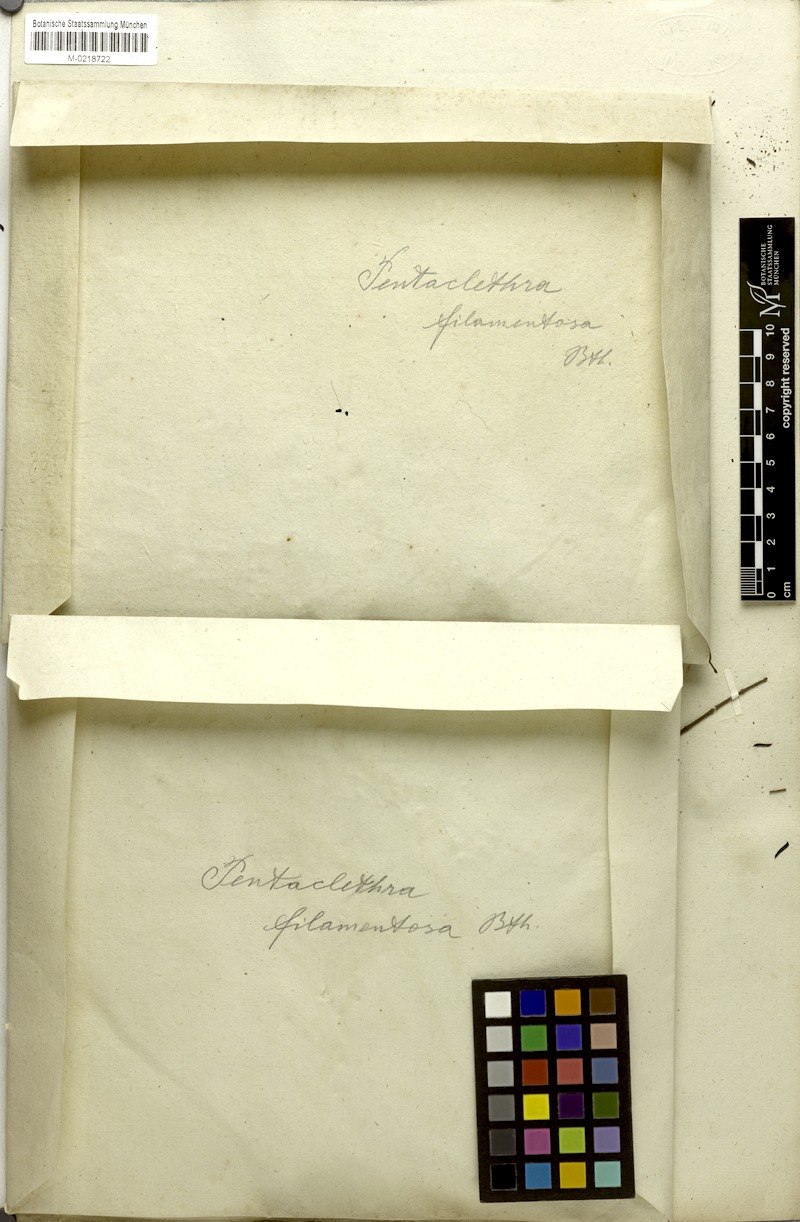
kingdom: Plantae
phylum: Tracheophyta
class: Magnoliopsida
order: Fabales
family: Fabaceae
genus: Pentaclethra
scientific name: Pentaclethra macroloba
